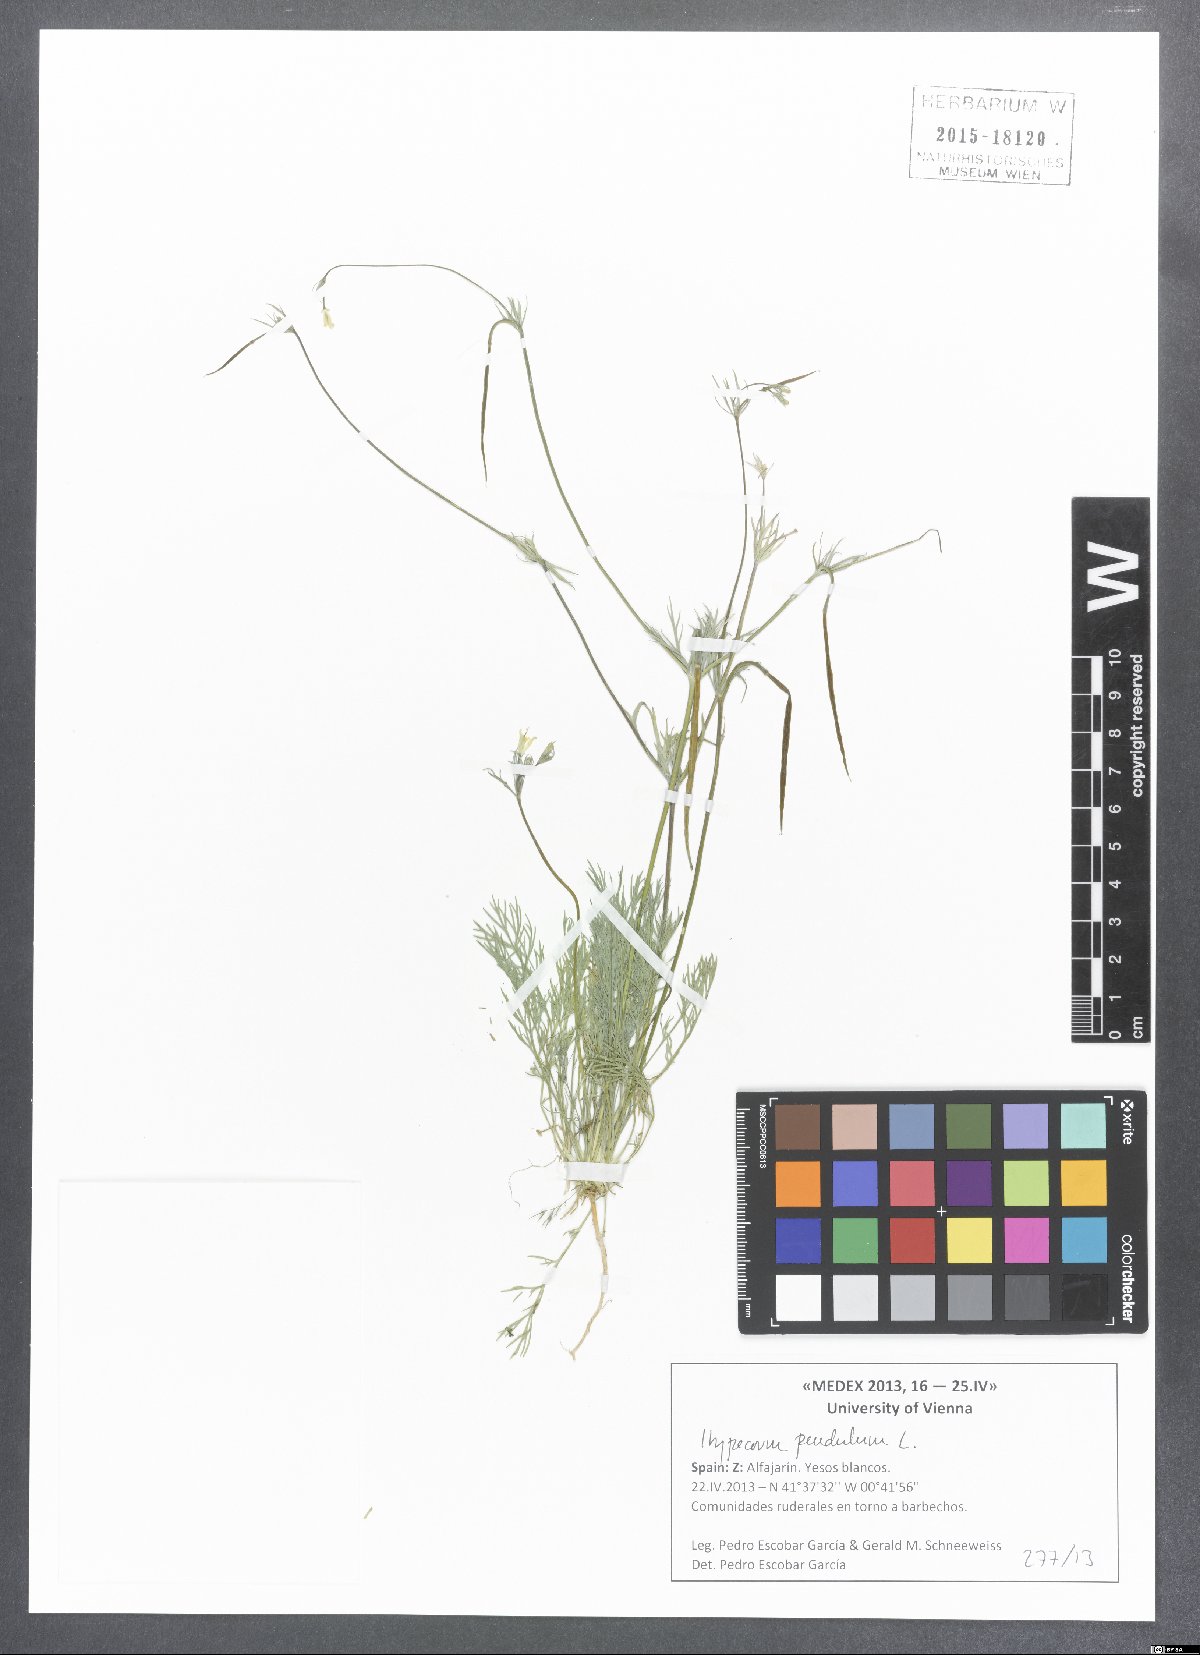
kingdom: Plantae
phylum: Tracheophyta
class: Magnoliopsida
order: Ranunculales
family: Papaveraceae
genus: Hypecoum
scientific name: Hypecoum pendulum
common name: Nodding hypecoum
